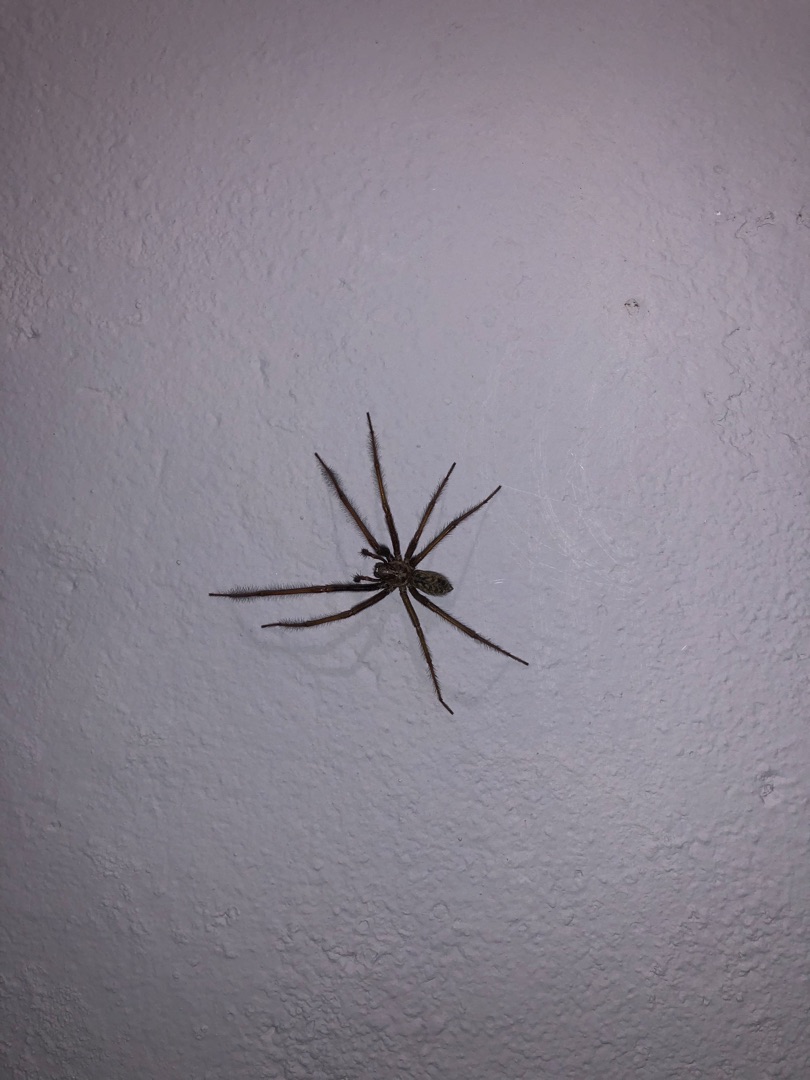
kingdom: Animalia
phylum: Arthropoda
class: Arachnida
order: Araneae
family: Agelenidae
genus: Eratigena
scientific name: Eratigena atrica
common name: Stor husedderkop
